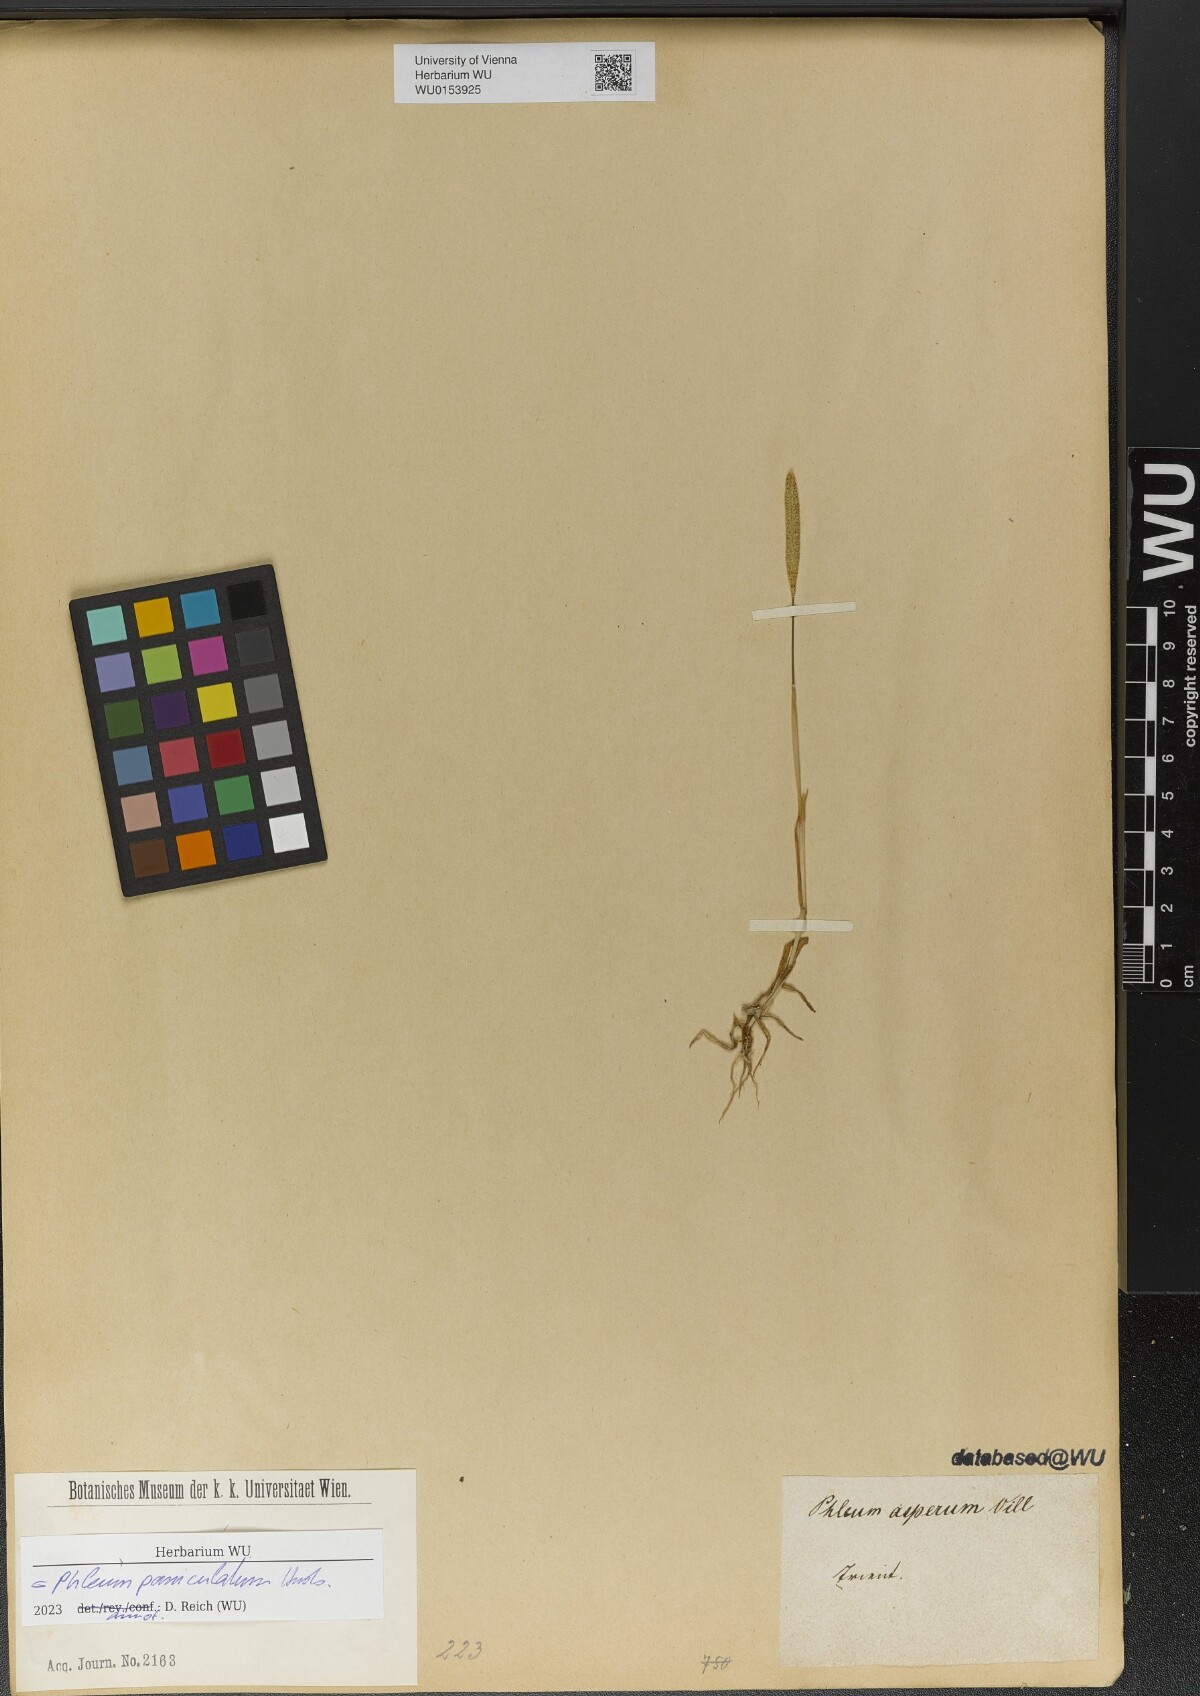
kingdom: Plantae
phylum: Tracheophyta
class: Liliopsida
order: Poales
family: Poaceae
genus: Phleum
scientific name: Phleum paniculatum
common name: British timothy
